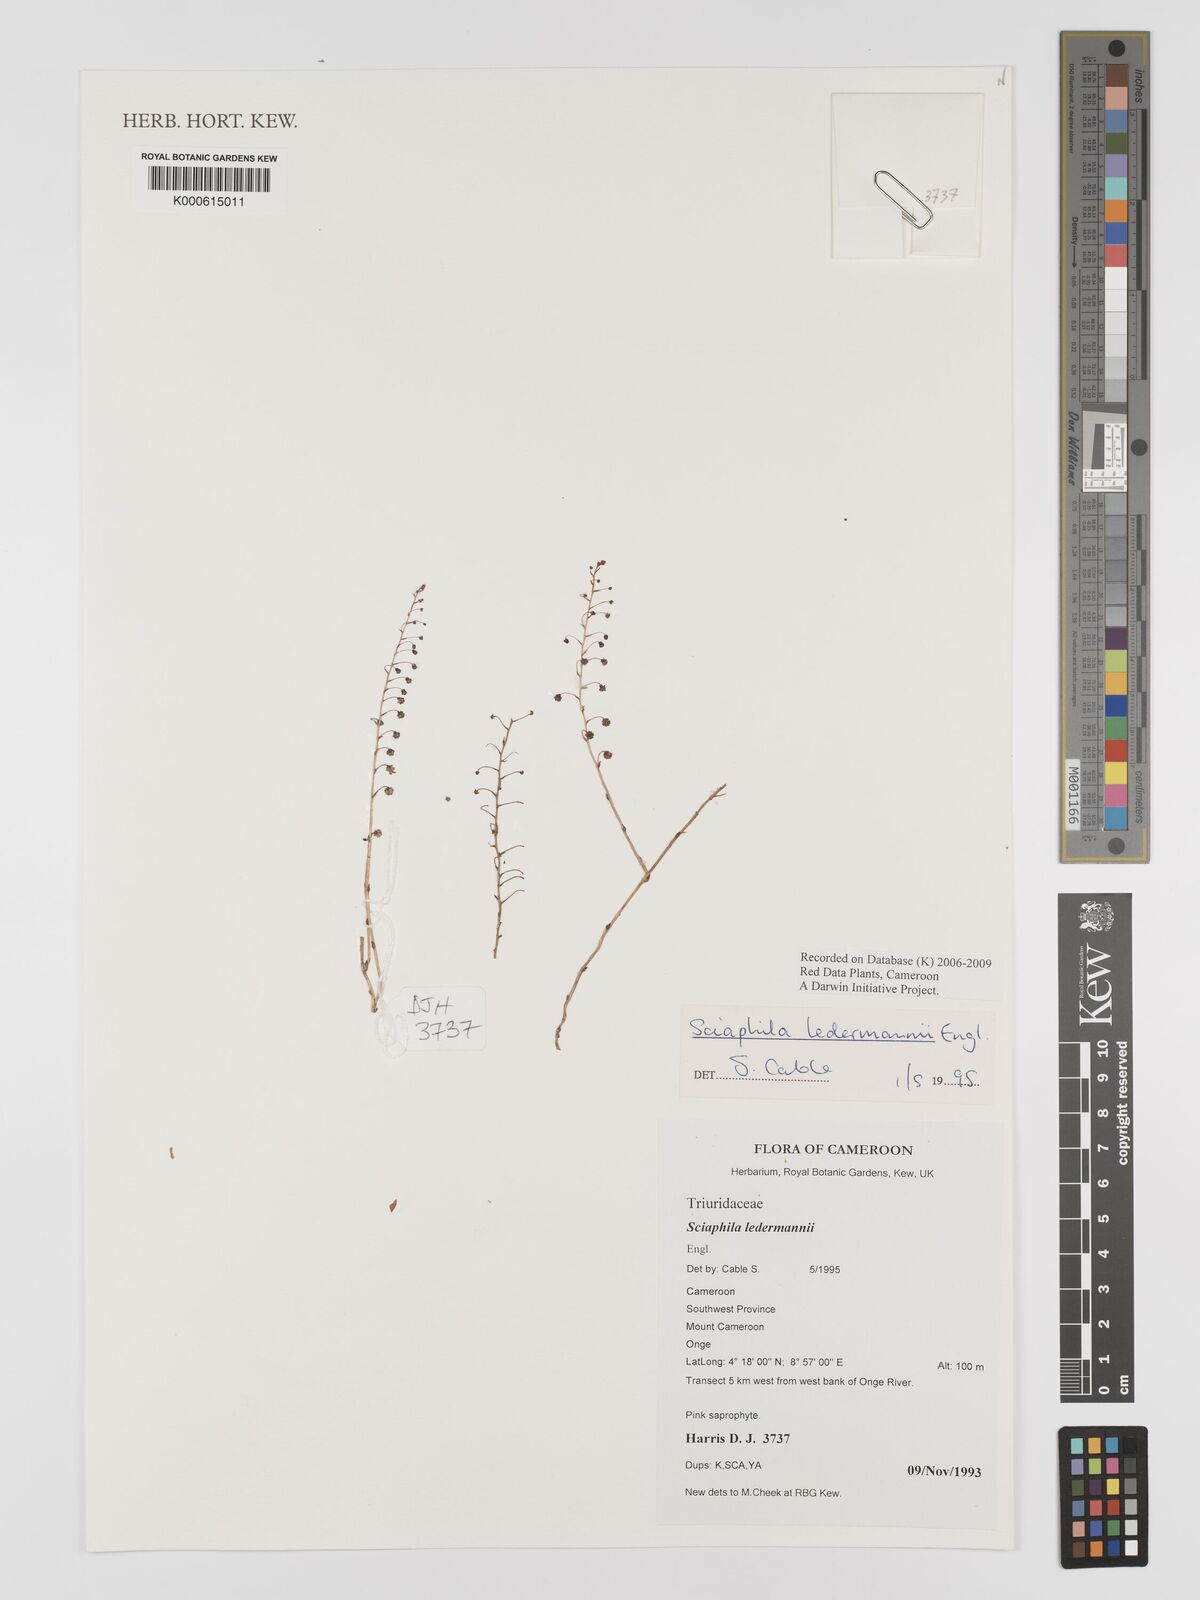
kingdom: Plantae
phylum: Tracheophyta
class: Liliopsida
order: Pandanales
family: Triuridaceae
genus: Sciaphila
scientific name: Sciaphila ledermannii
